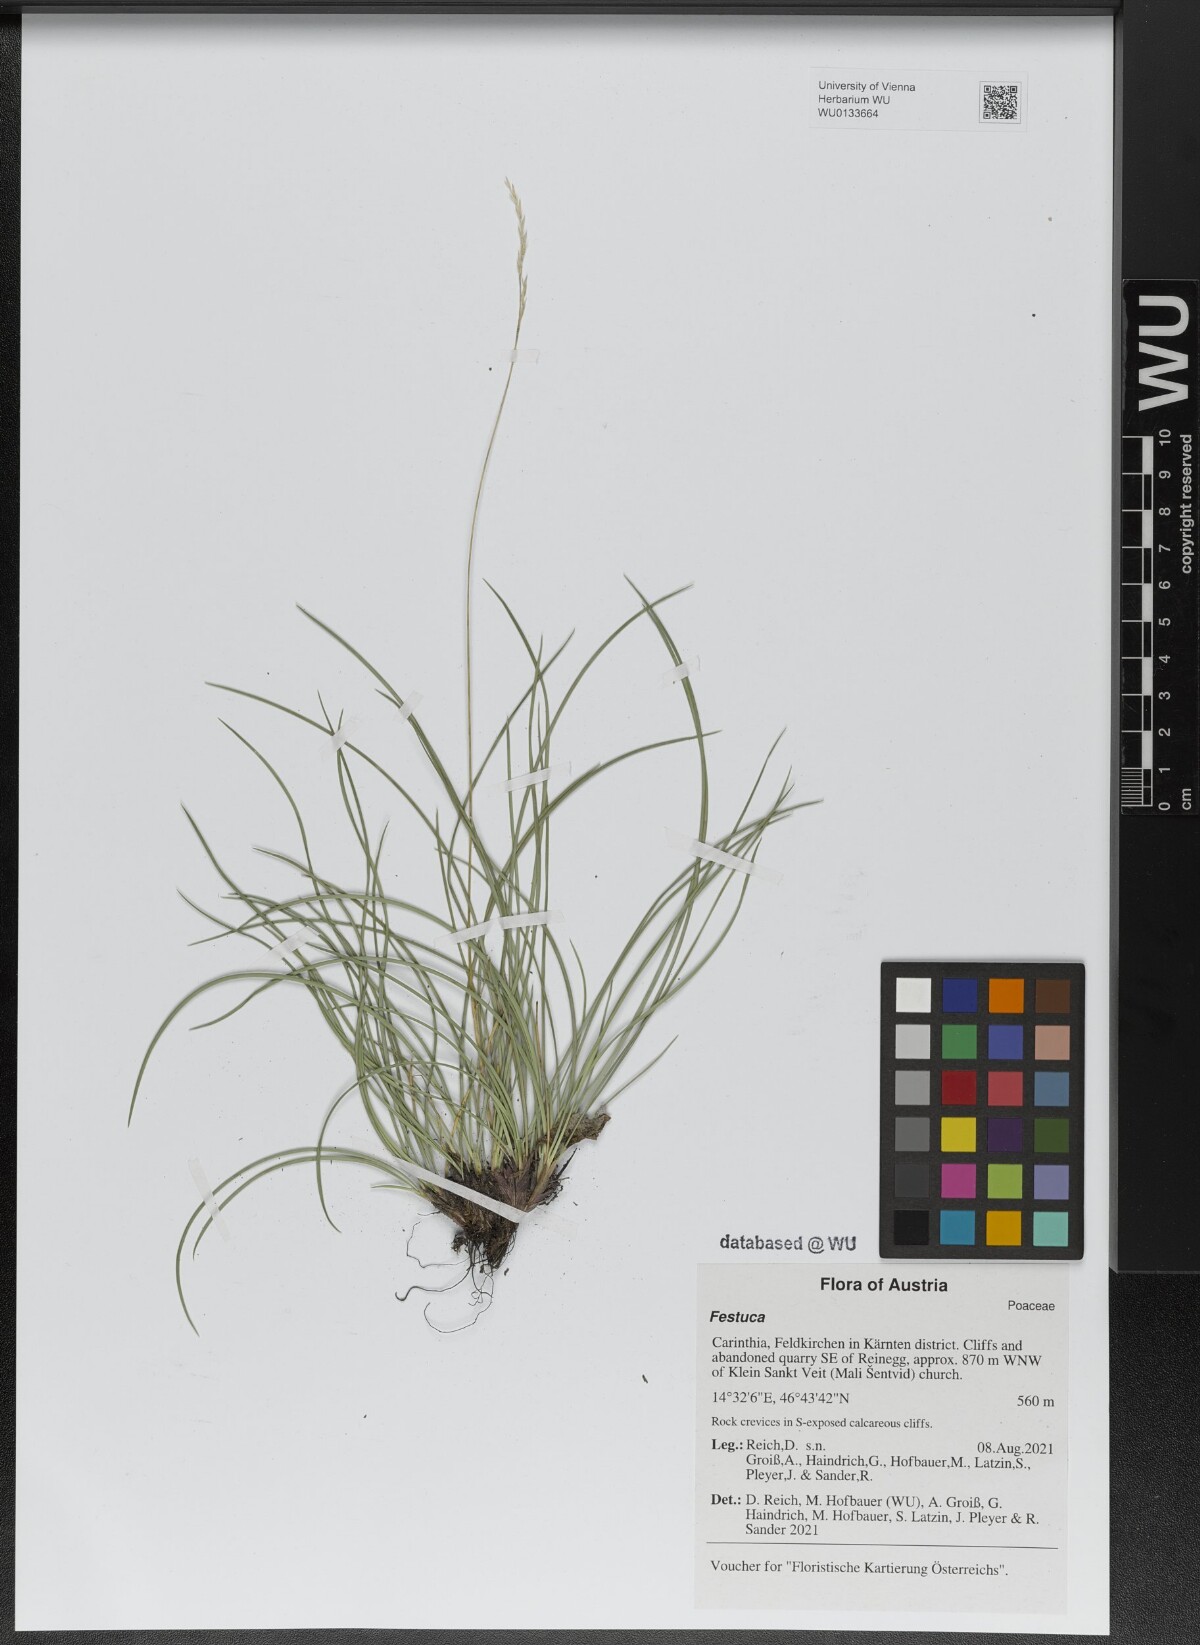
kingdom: Plantae
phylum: Tracheophyta
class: Liliopsida
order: Poales
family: Poaceae
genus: Festuca
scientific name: Festuca
